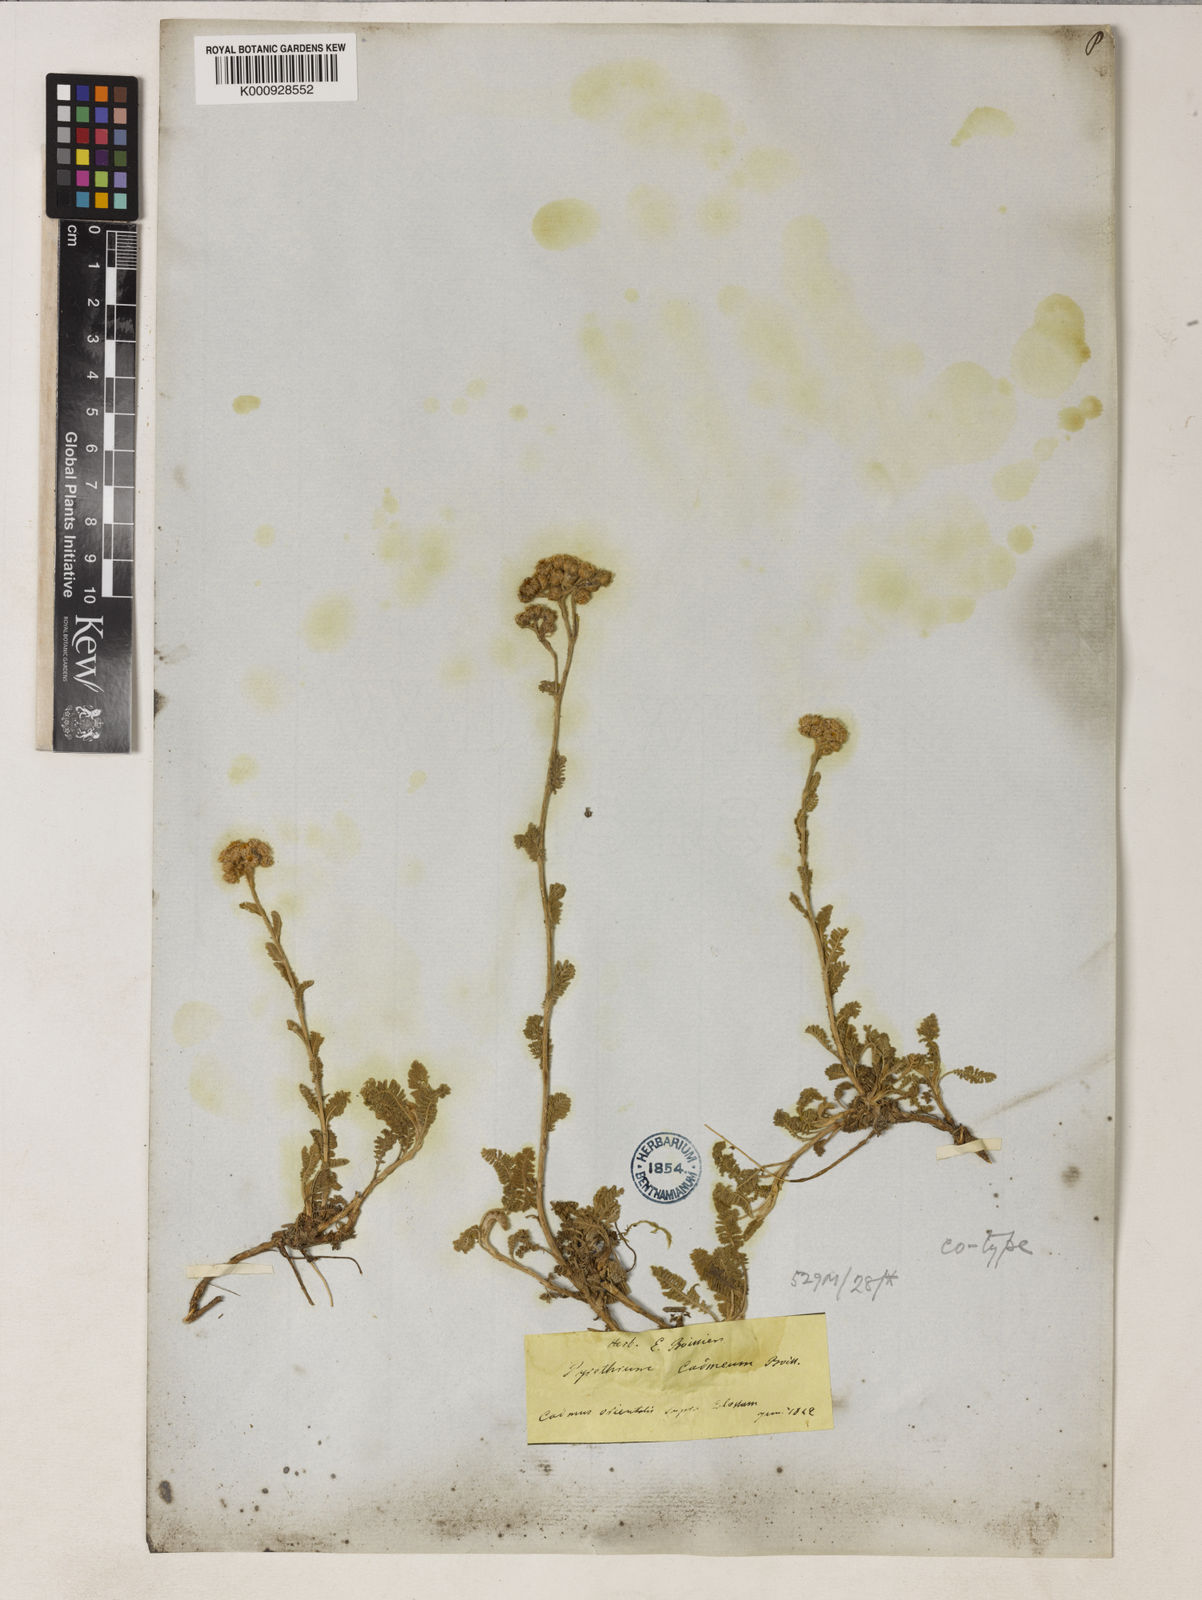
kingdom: Plantae
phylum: Tracheophyta
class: Magnoliopsida
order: Asterales
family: Asteraceae
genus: Tanacetum
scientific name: Tanacetum cadmeum
